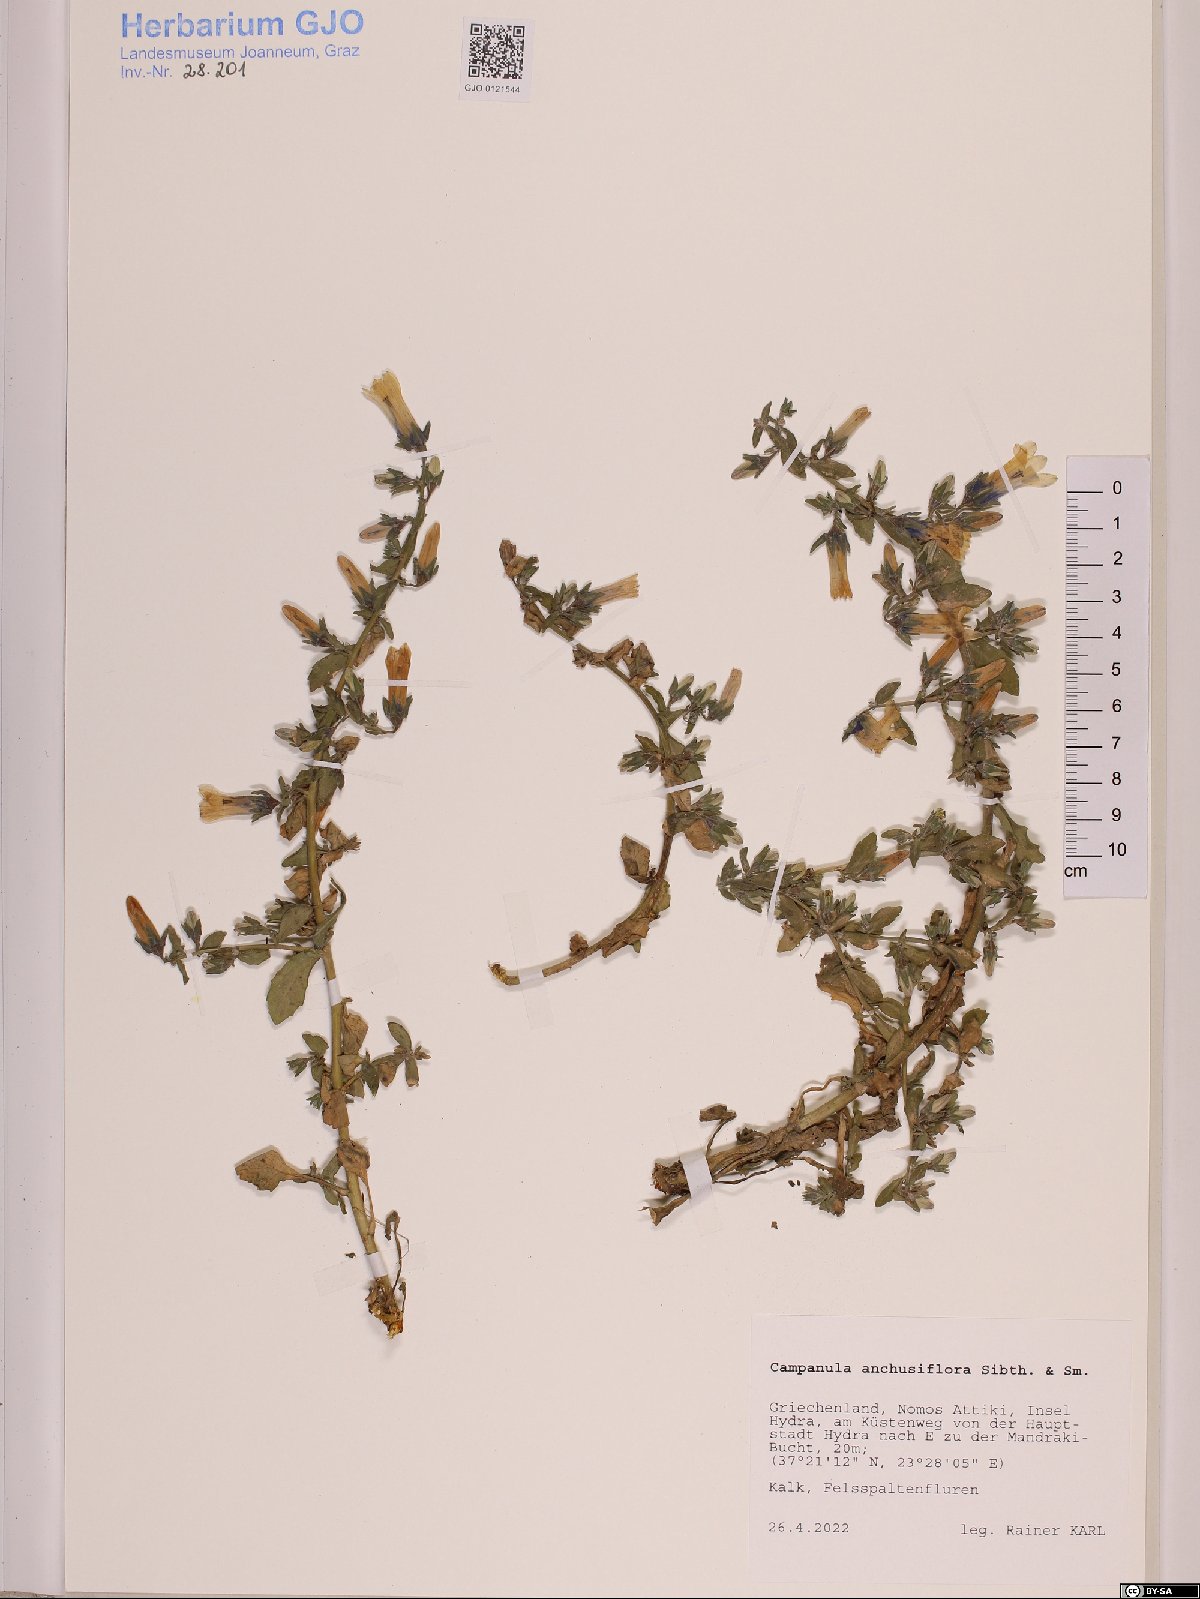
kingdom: Plantae
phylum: Tracheophyta
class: Magnoliopsida
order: Asterales
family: Campanulaceae
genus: Campanula
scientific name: Campanula anchusiflora
